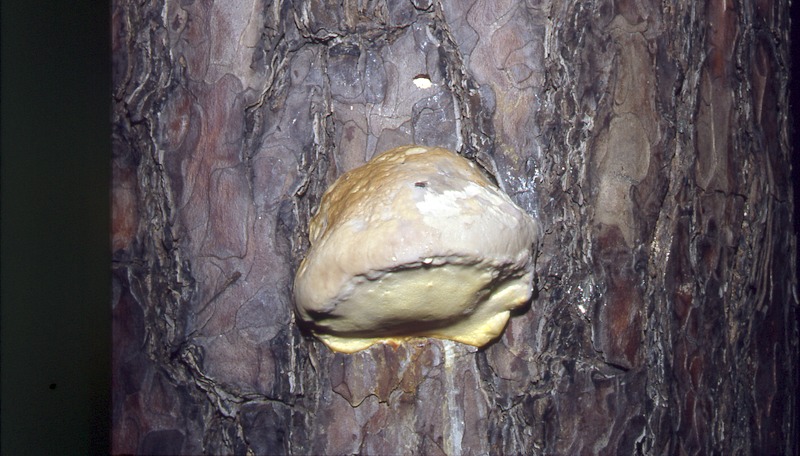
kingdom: Fungi
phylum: Basidiomycota
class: Agaricomycetes
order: Polyporales
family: Fomitopsidaceae
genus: Fomitopsis
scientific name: Fomitopsis pinicola
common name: Red-belted bracket
